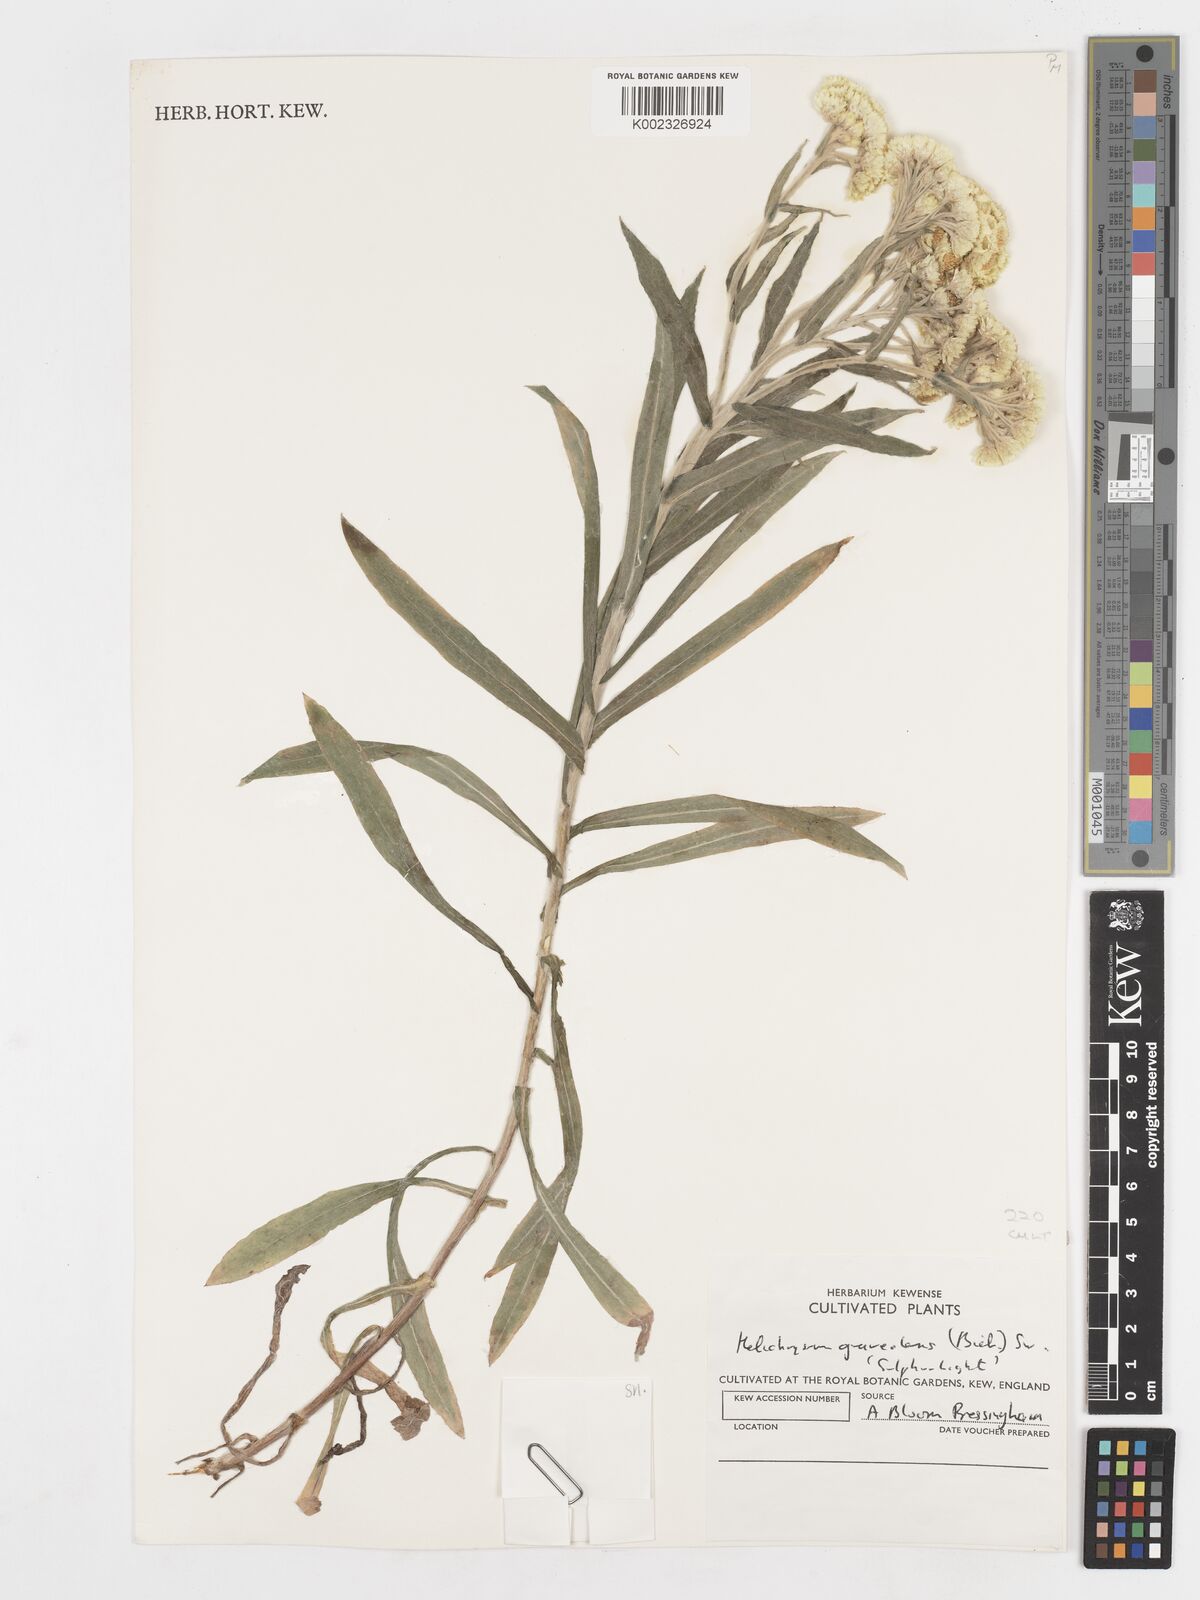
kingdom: Plantae
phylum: Tracheophyta
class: Magnoliopsida
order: Asterales
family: Asteraceae
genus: Helichrysum
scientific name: Helichrysum graveolens
